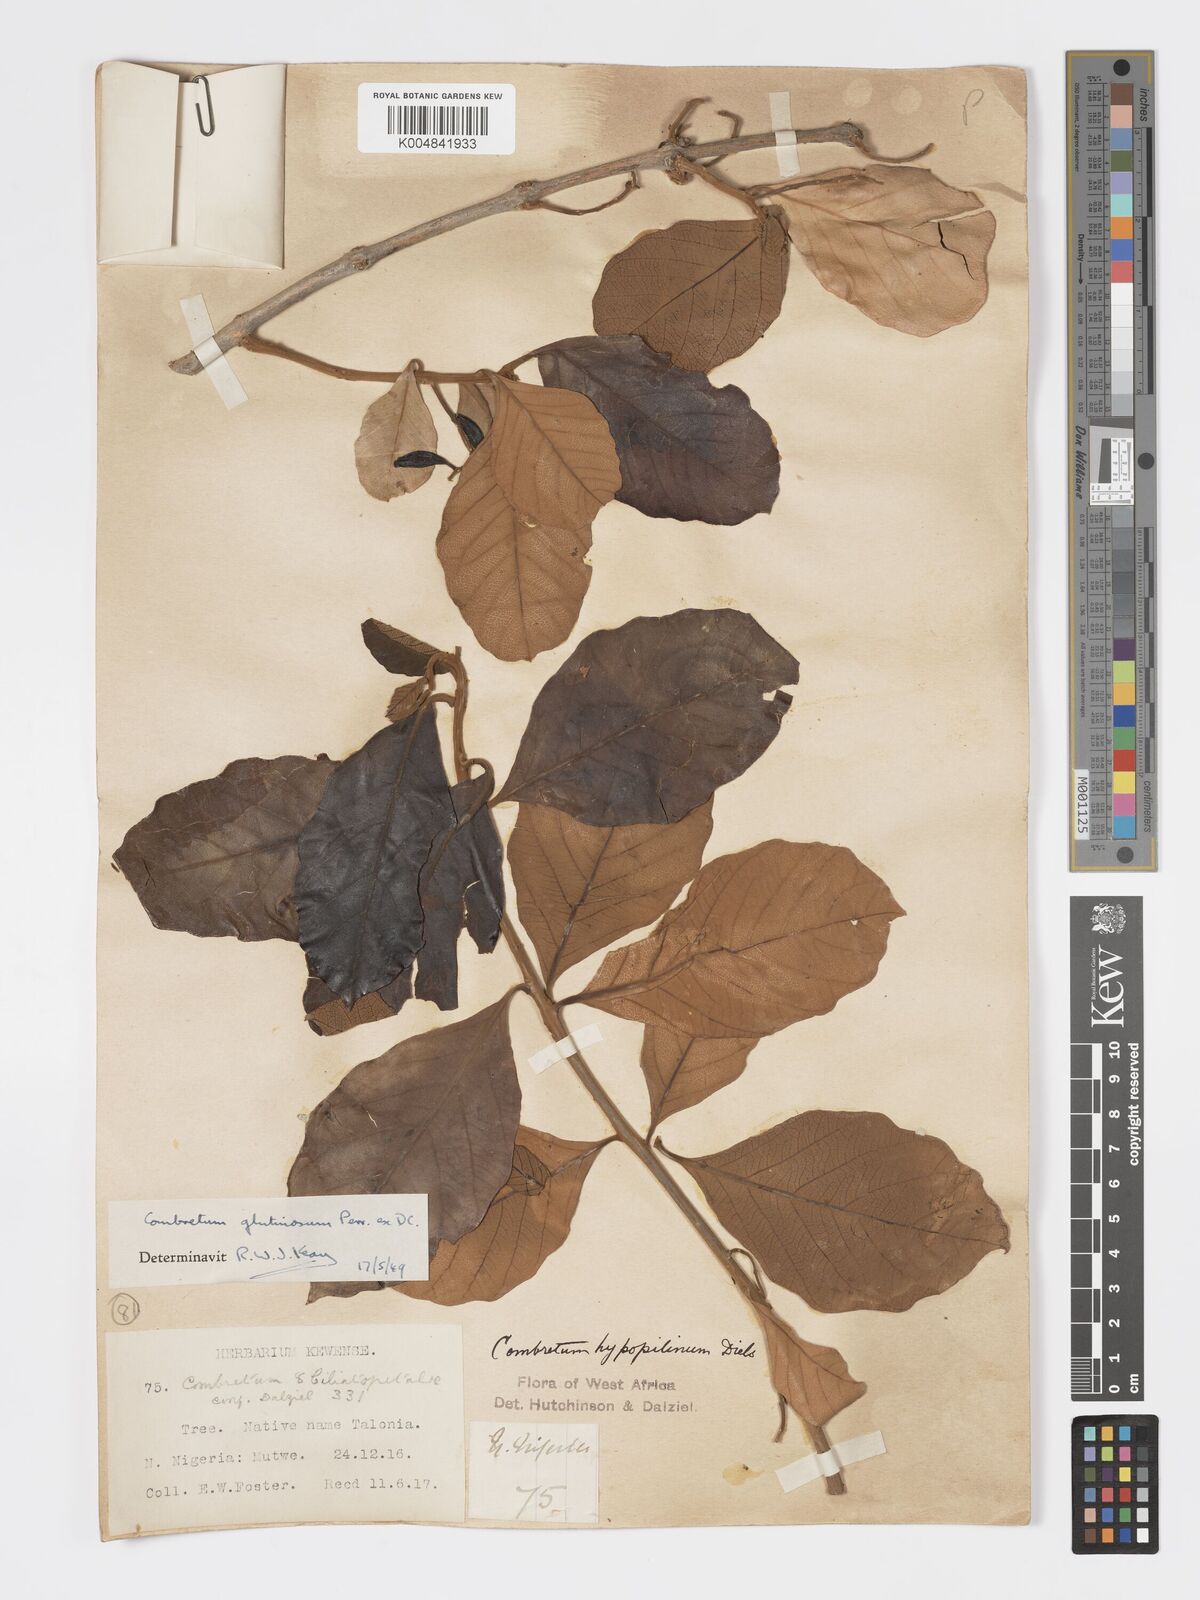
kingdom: Plantae
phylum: Tracheophyta
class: Magnoliopsida
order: Myrtales
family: Combretaceae
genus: Combretum
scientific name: Combretum
